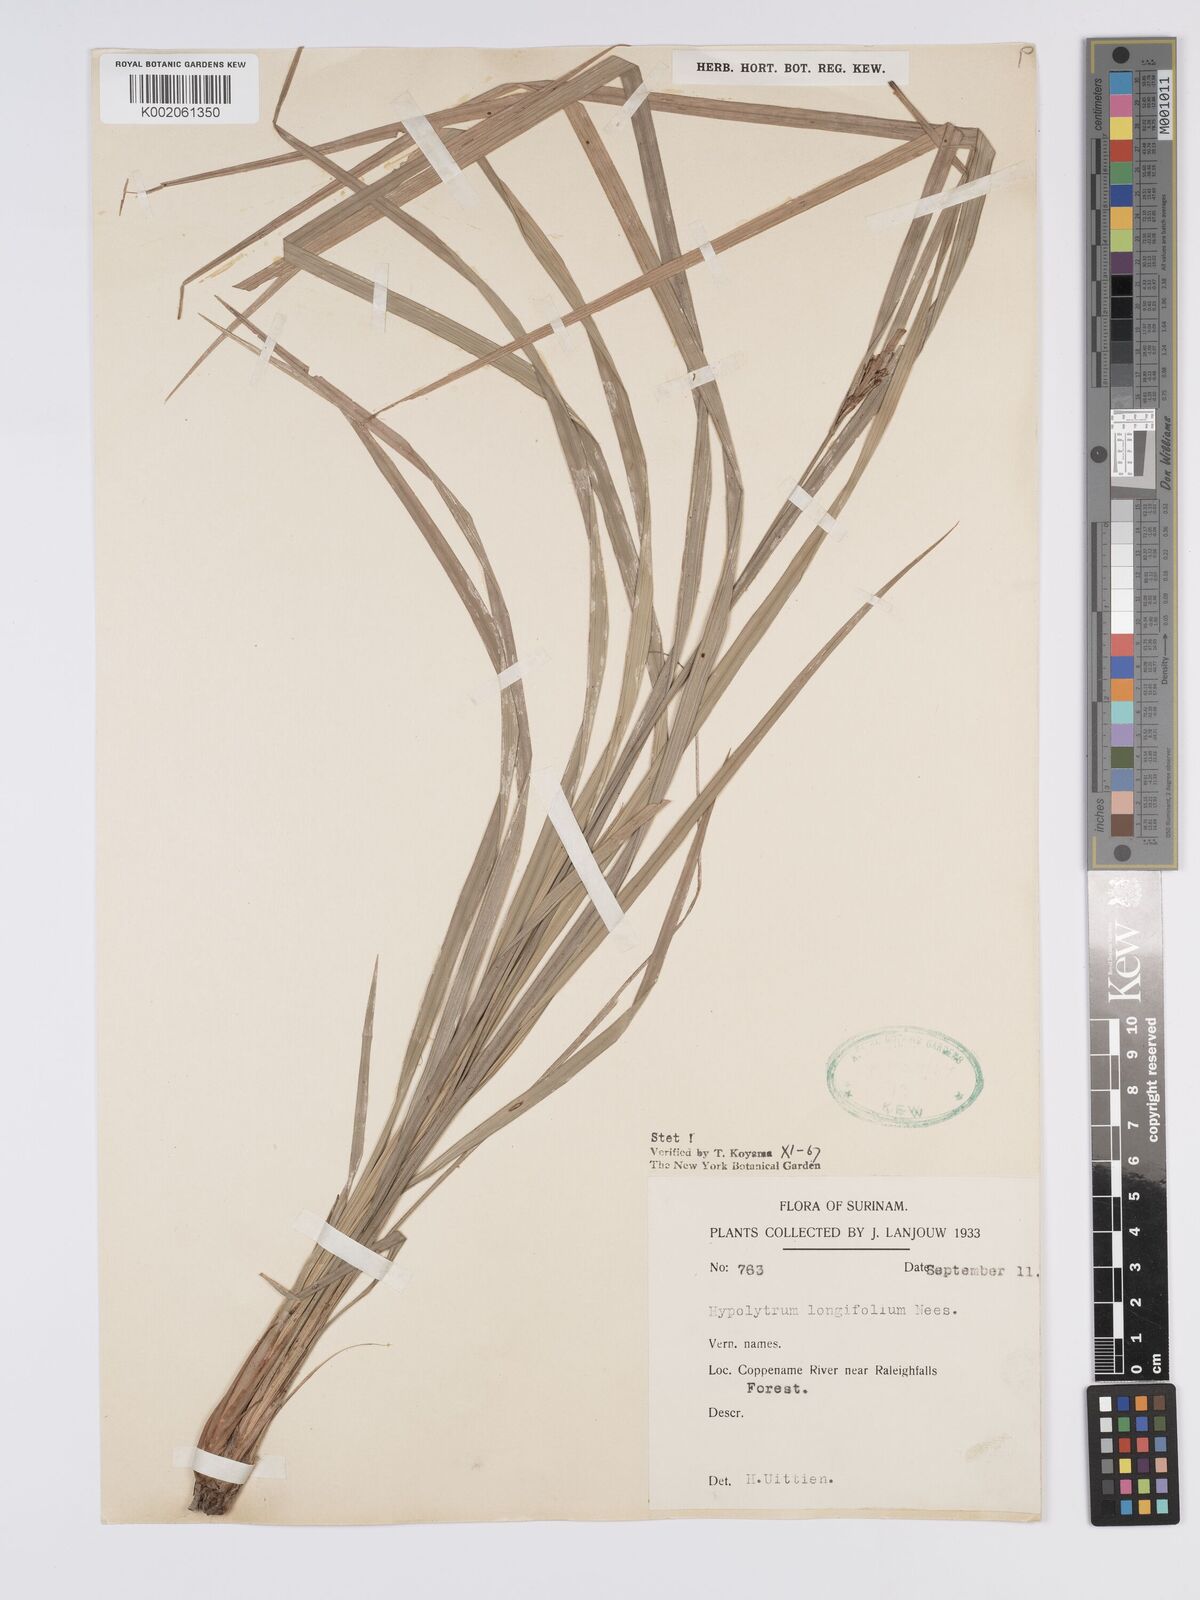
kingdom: Plantae
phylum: Tracheophyta
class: Liliopsida
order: Poales
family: Cyperaceae
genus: Hypolytrum
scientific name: Hypolytrum longifolium
